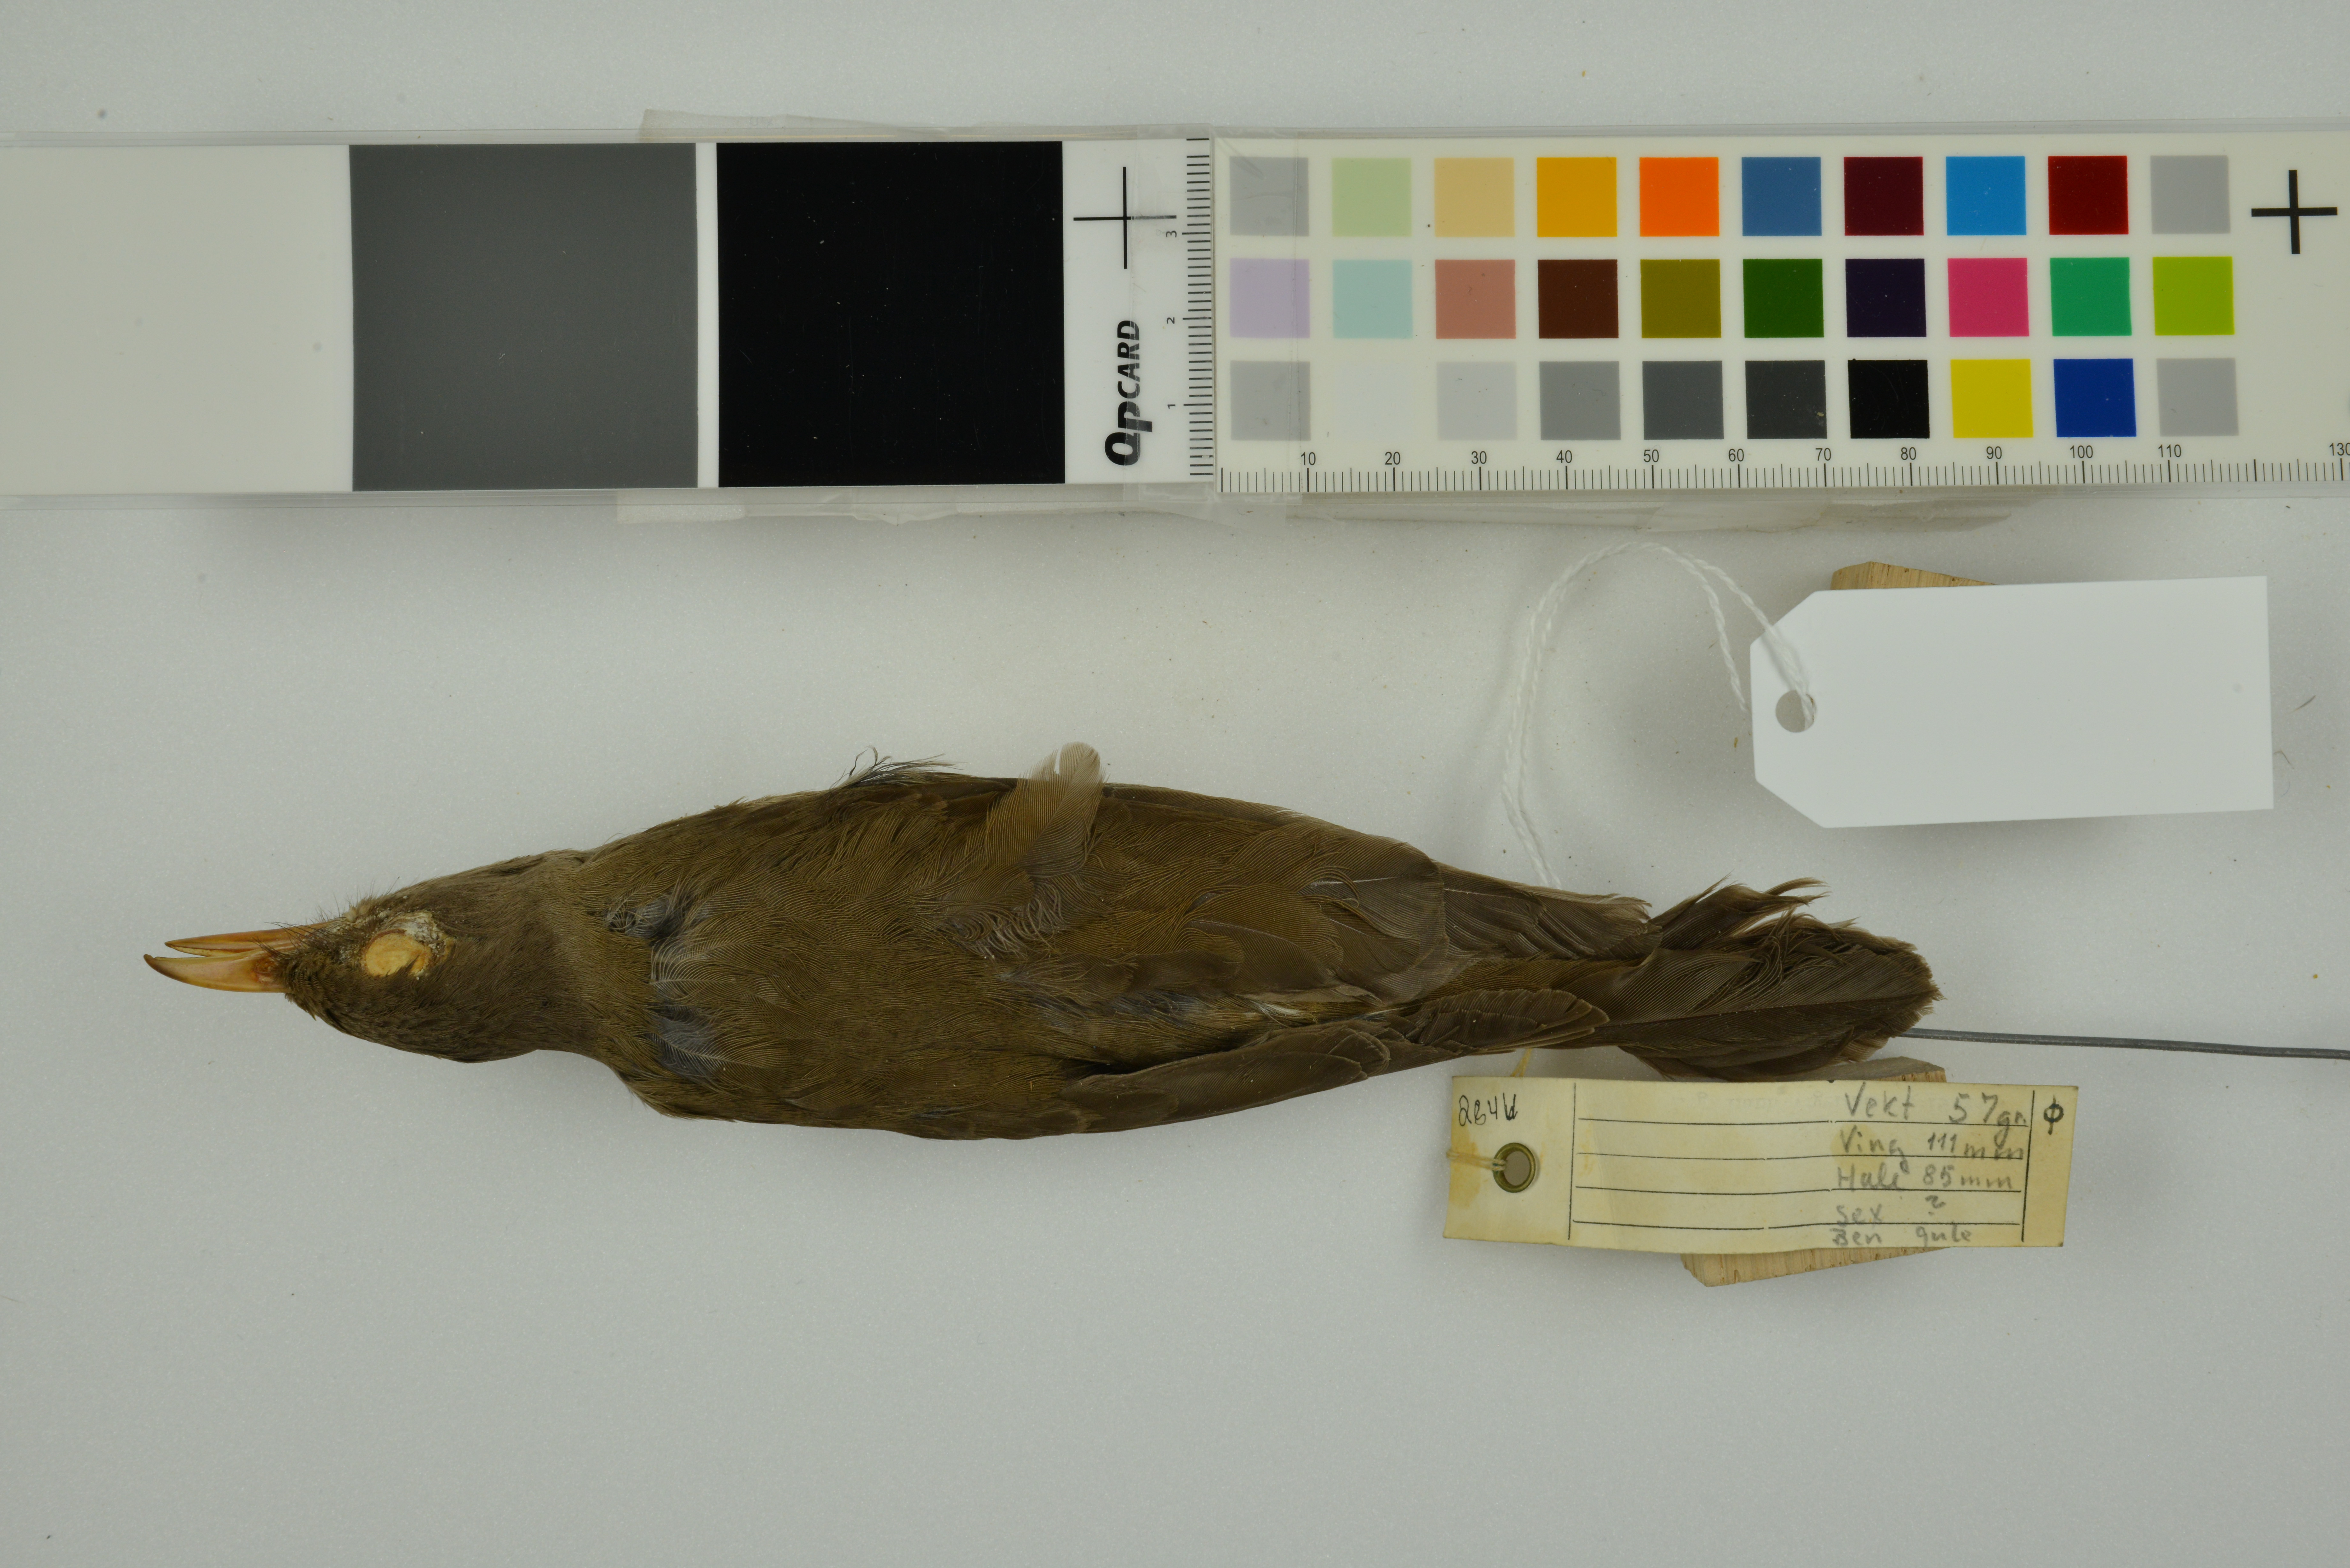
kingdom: Animalia
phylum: Chordata
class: Aves
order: Passeriformes
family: Turdidae
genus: Turdus
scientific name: Turdus poliocephalus
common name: Island thrush
